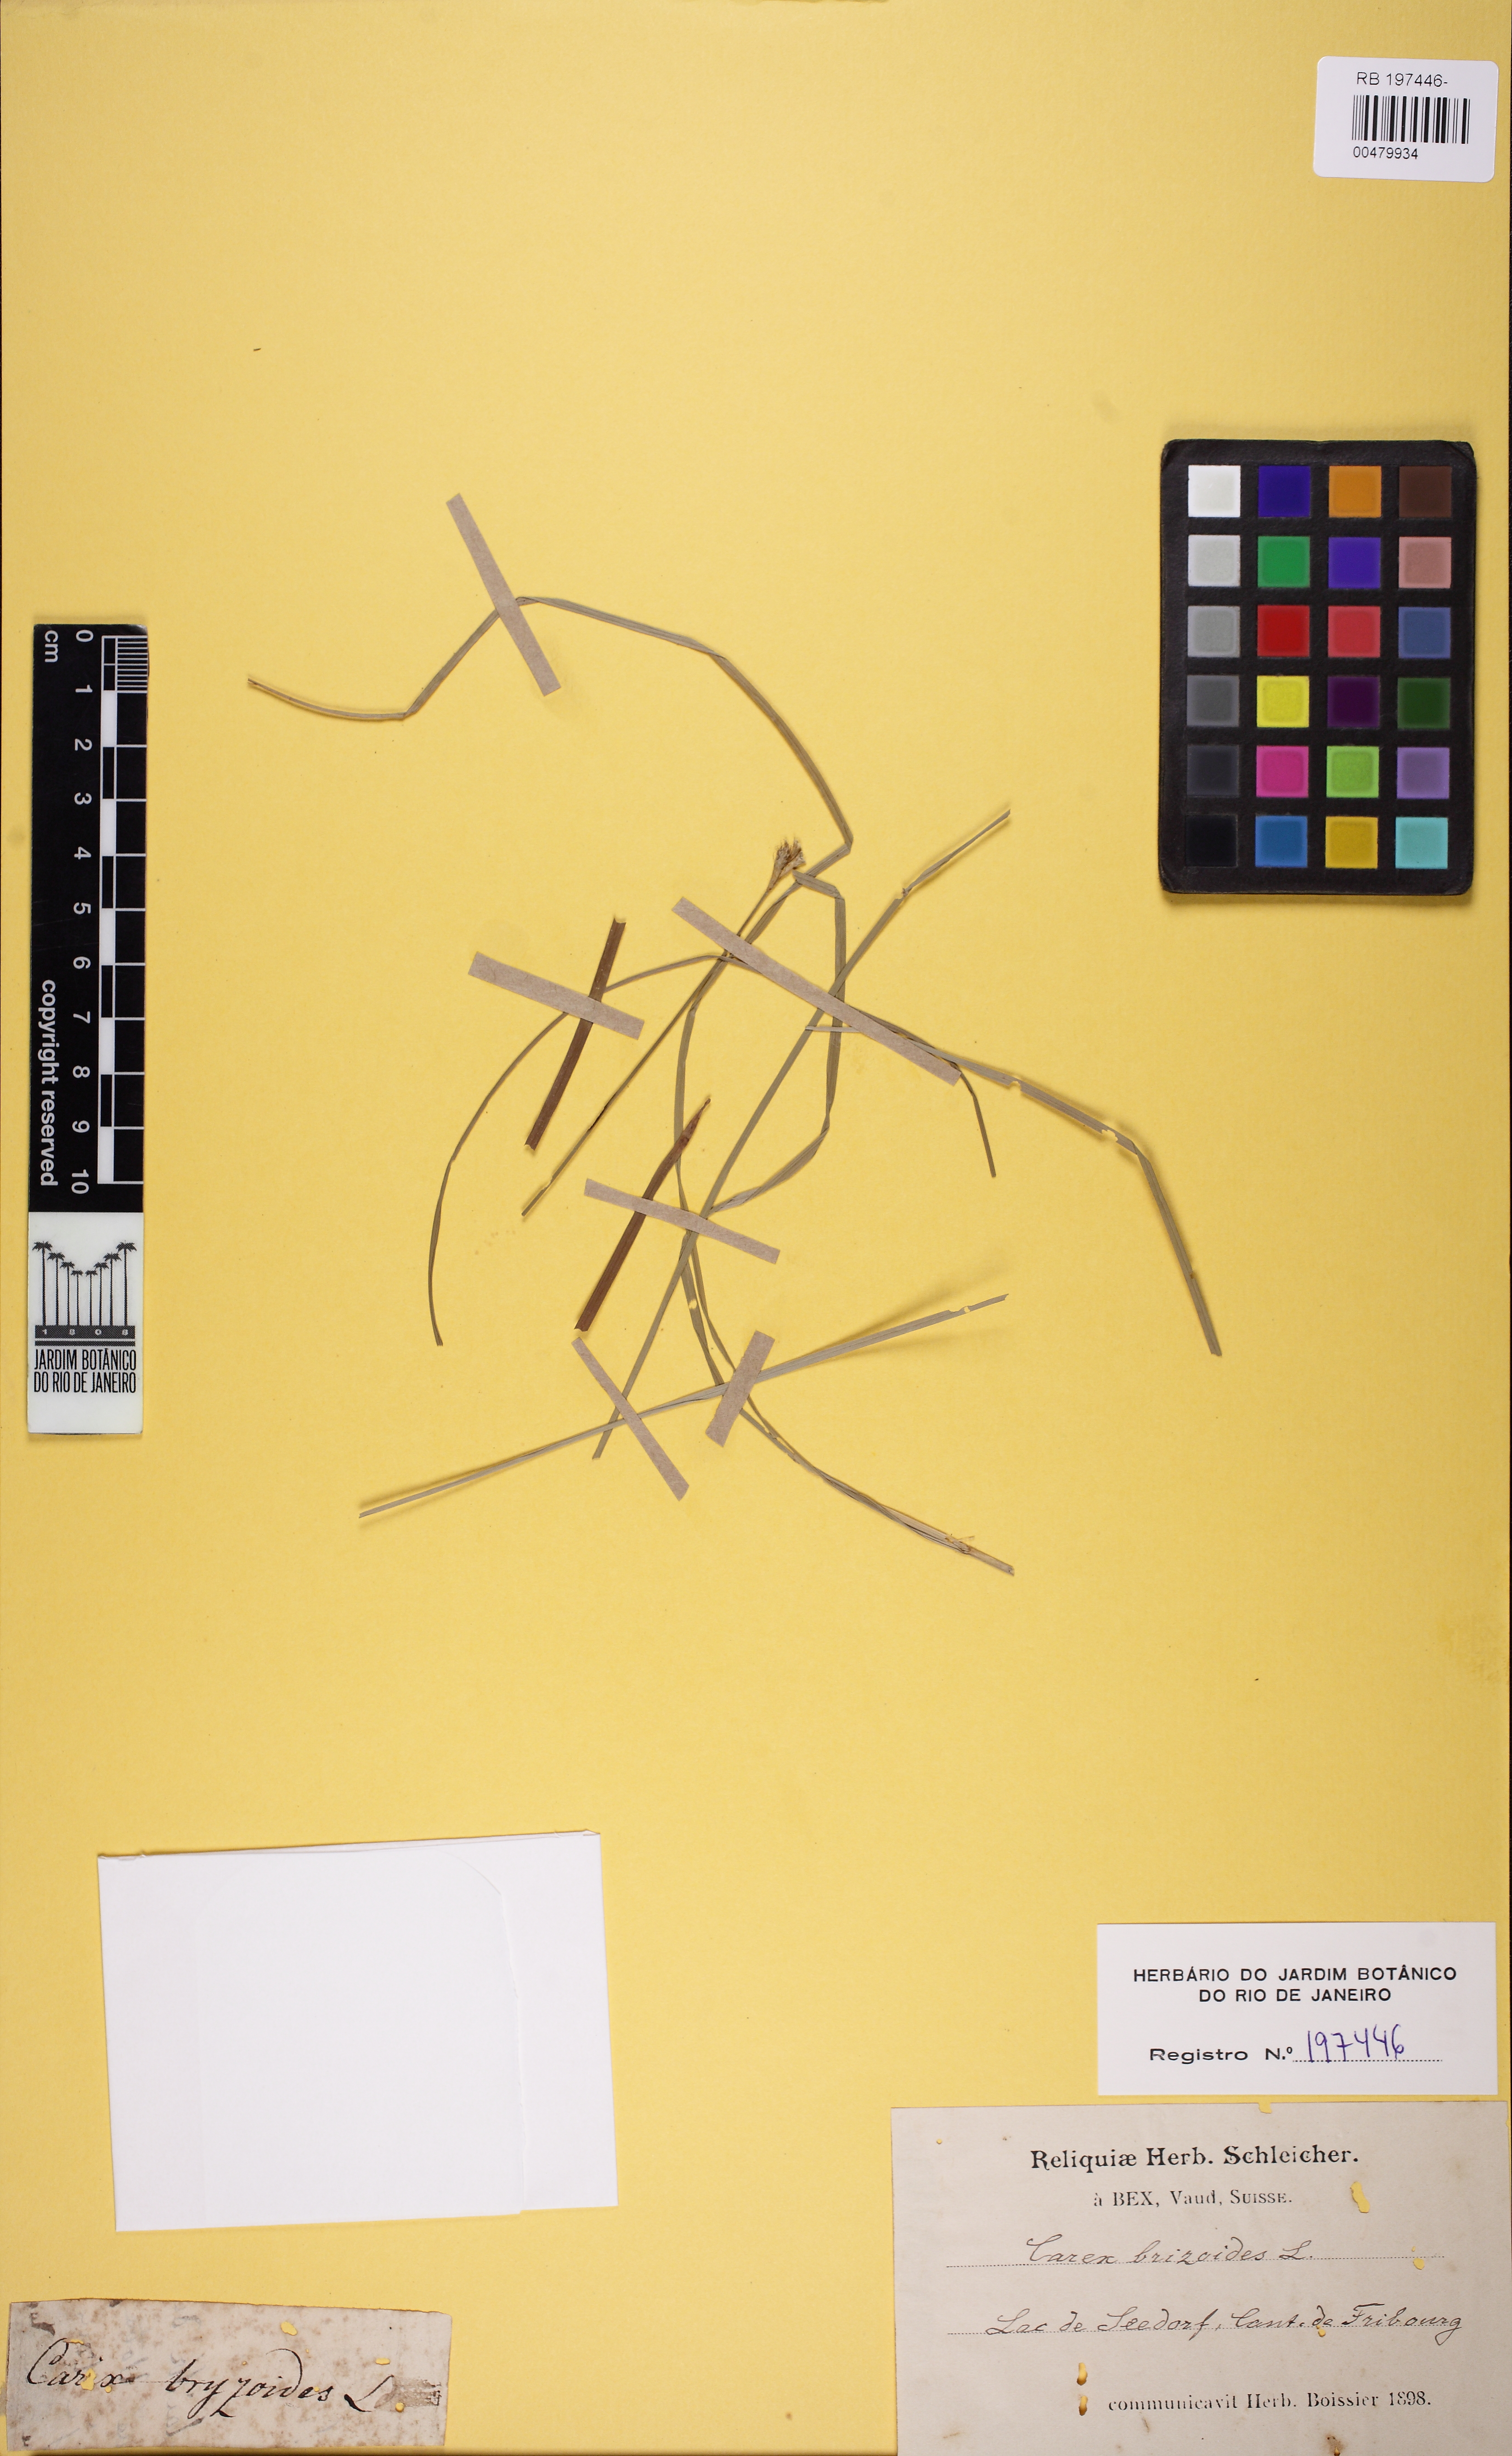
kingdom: Plantae
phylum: Tracheophyta
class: Liliopsida
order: Poales
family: Cyperaceae
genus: Carex
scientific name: Carex brizoides
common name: Quaking-grass sedge
